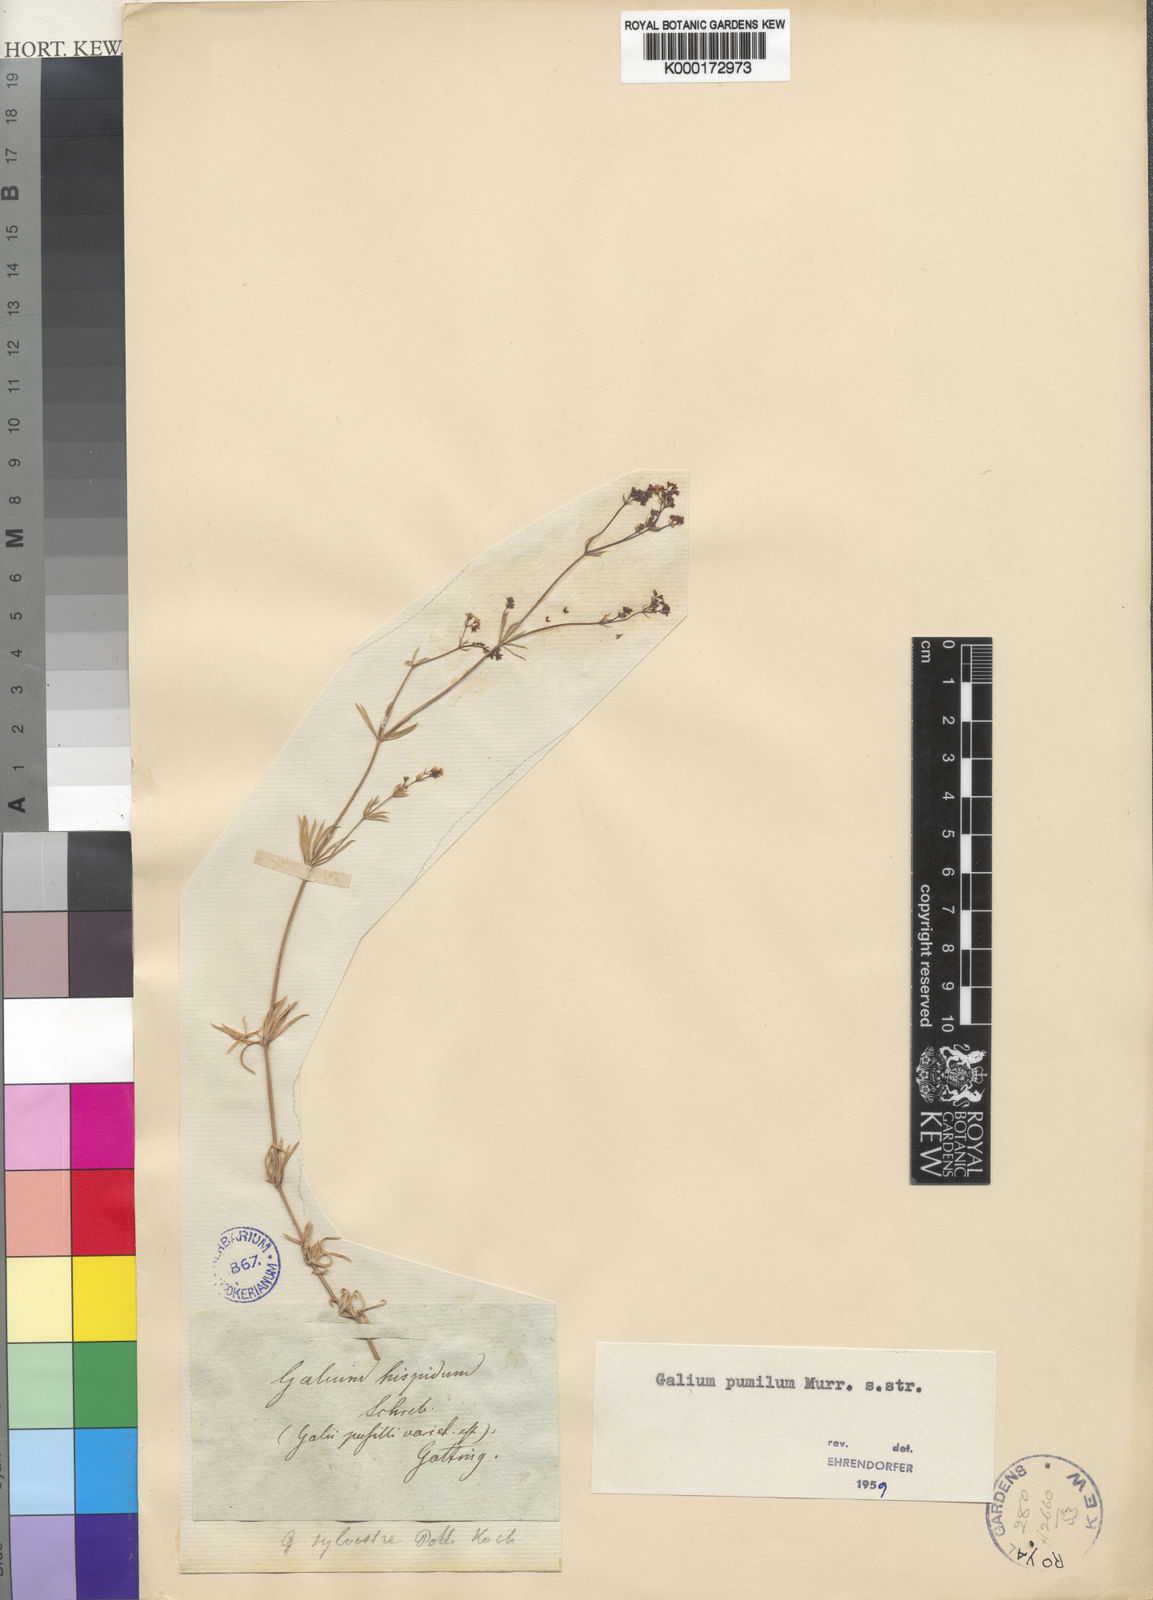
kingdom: Plantae
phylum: Tracheophyta
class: Magnoliopsida
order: Gentianales
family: Rubiaceae
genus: Galium
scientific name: Galium pumilum
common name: Slender bedstraw
